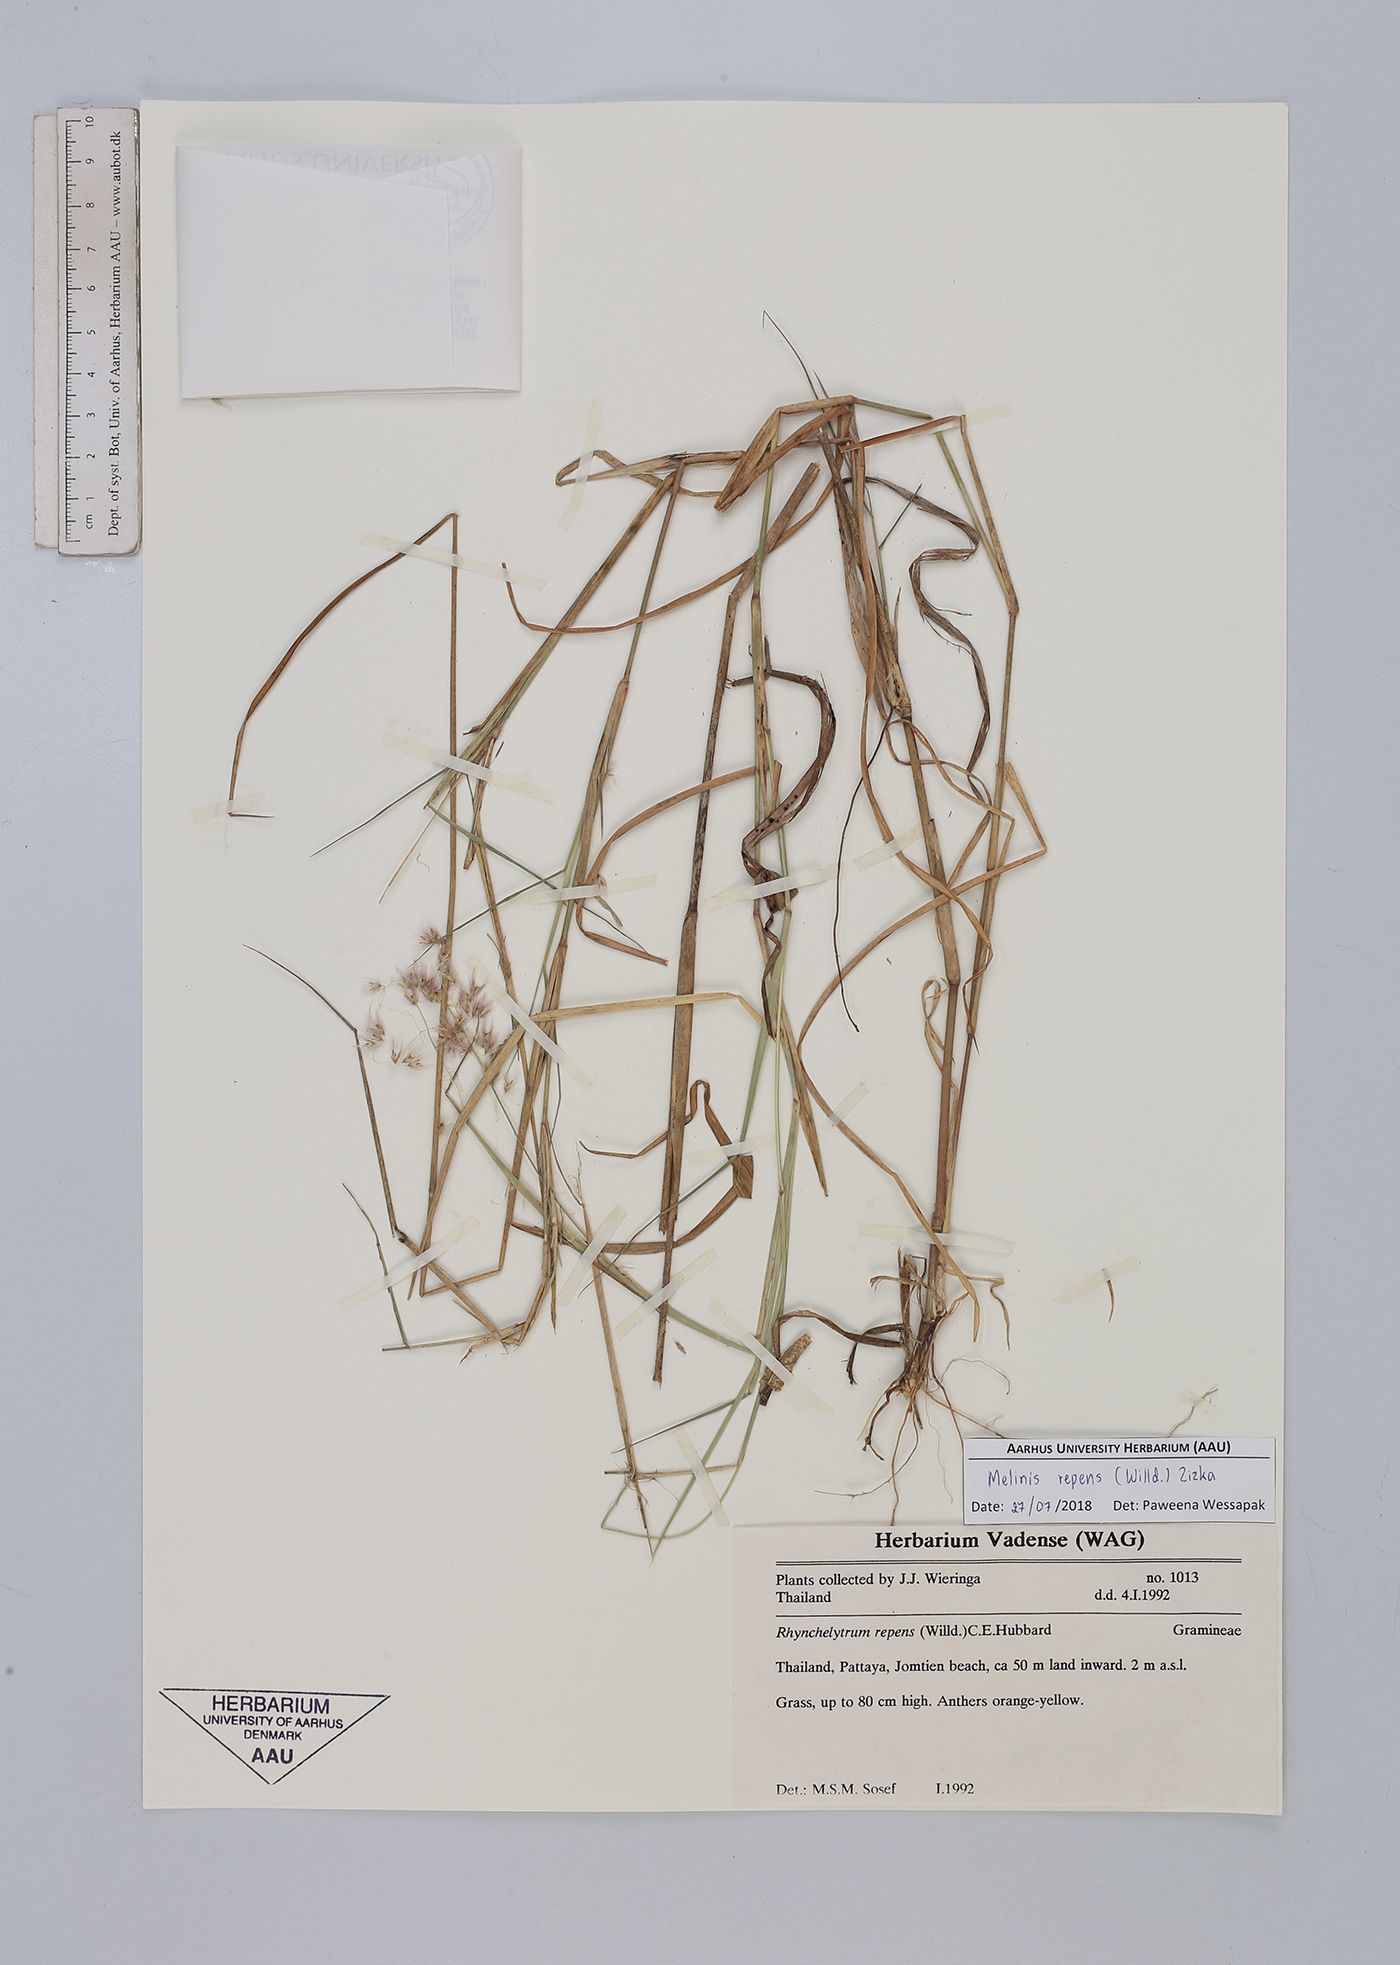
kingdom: Plantae
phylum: Tracheophyta
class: Liliopsida
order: Poales
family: Poaceae
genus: Melinis
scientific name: Melinis repens
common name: Rose natal grass
